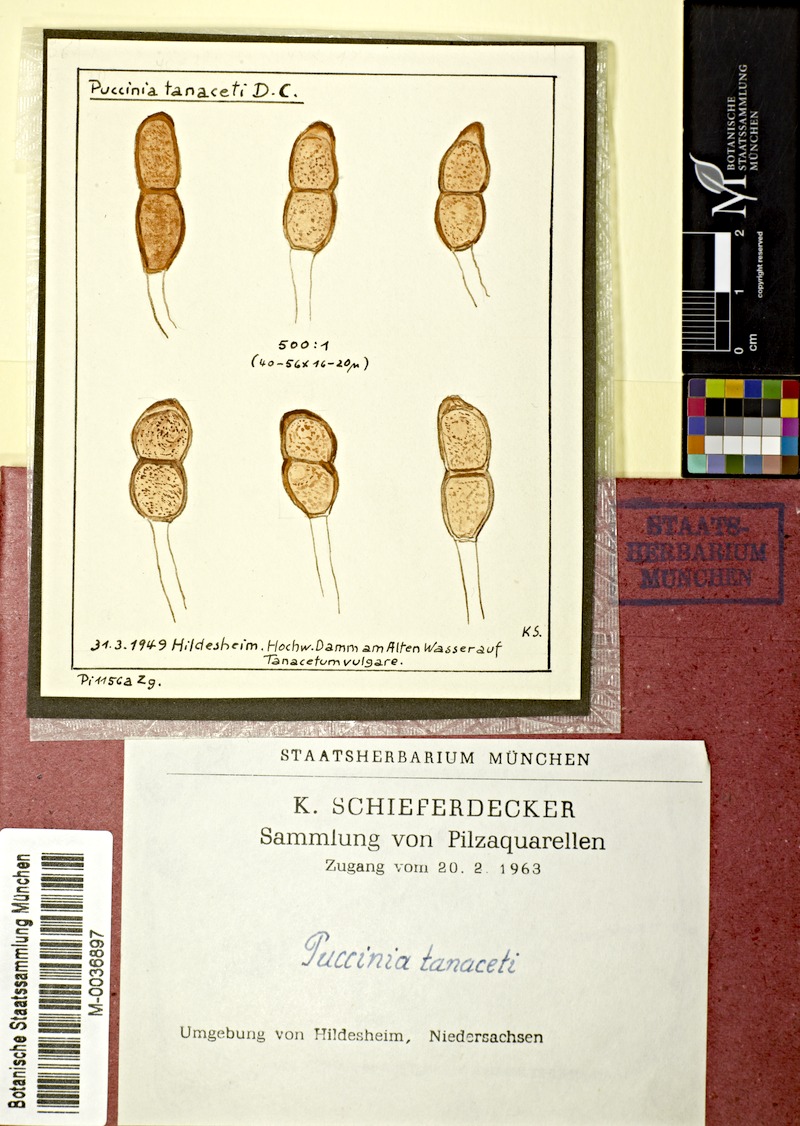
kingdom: Fungi
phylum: Basidiomycota
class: Pucciniomycetes
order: Pucciniales
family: Pucciniaceae
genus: Puccinia
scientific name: Puccinia tanaceti
